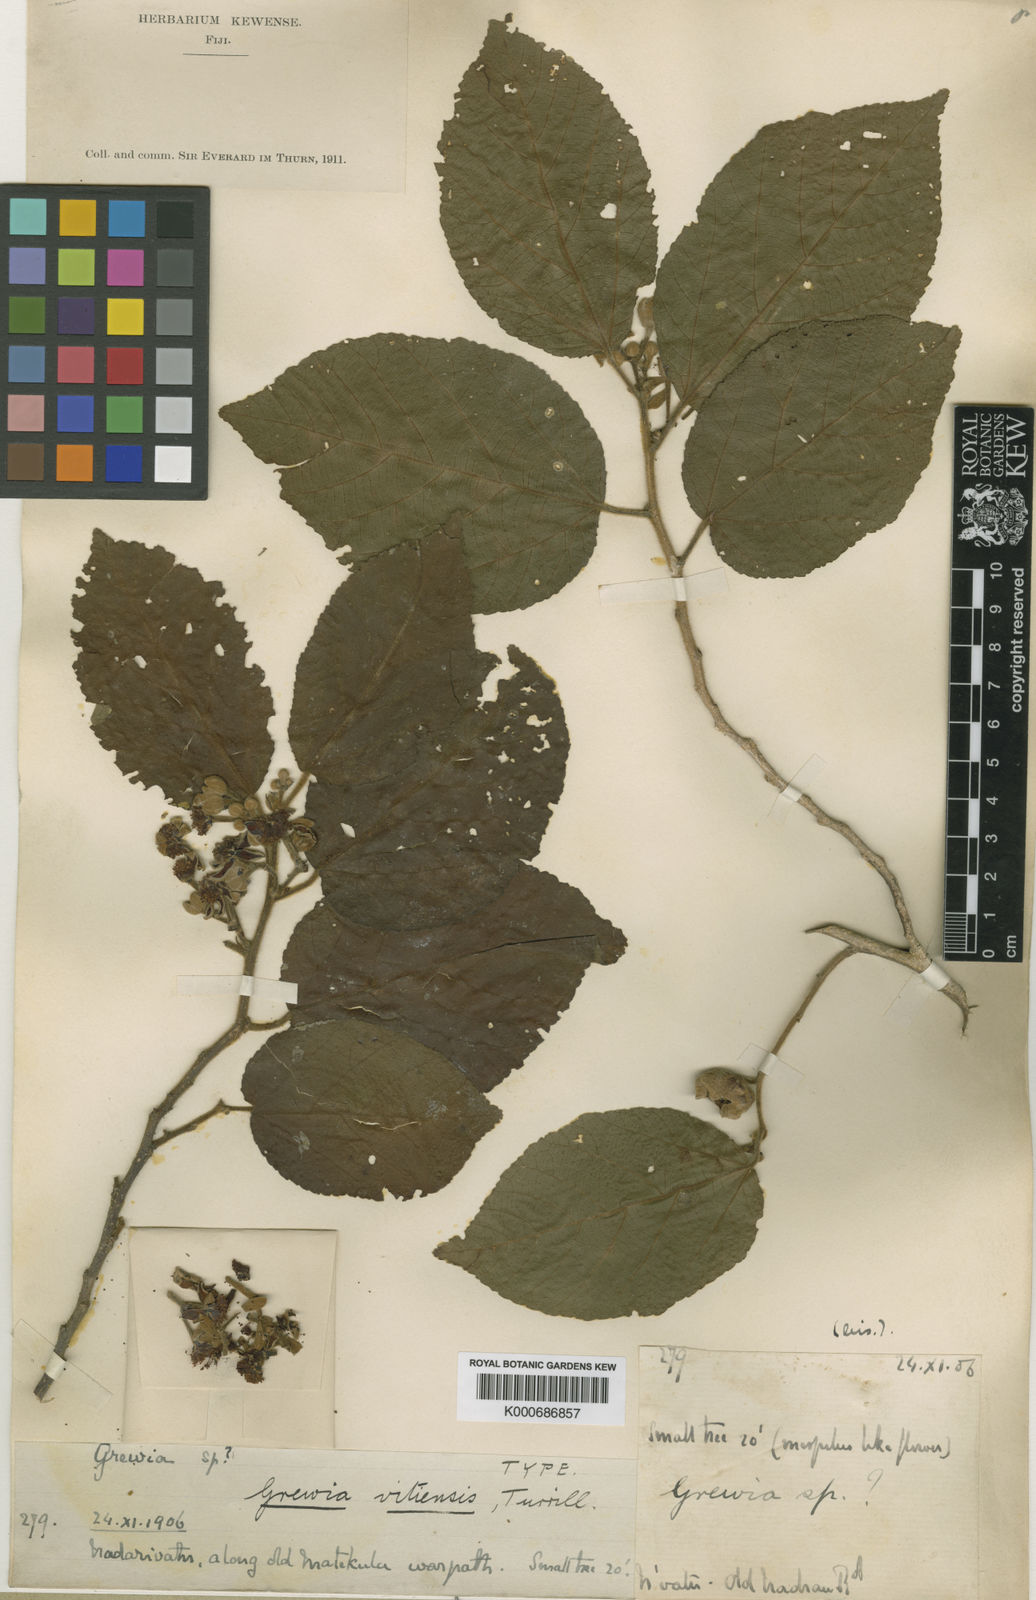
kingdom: Plantae
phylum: Tracheophyta
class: Magnoliopsida
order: Malvales
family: Malvaceae
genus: Grewia
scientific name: Grewia vitiensis
